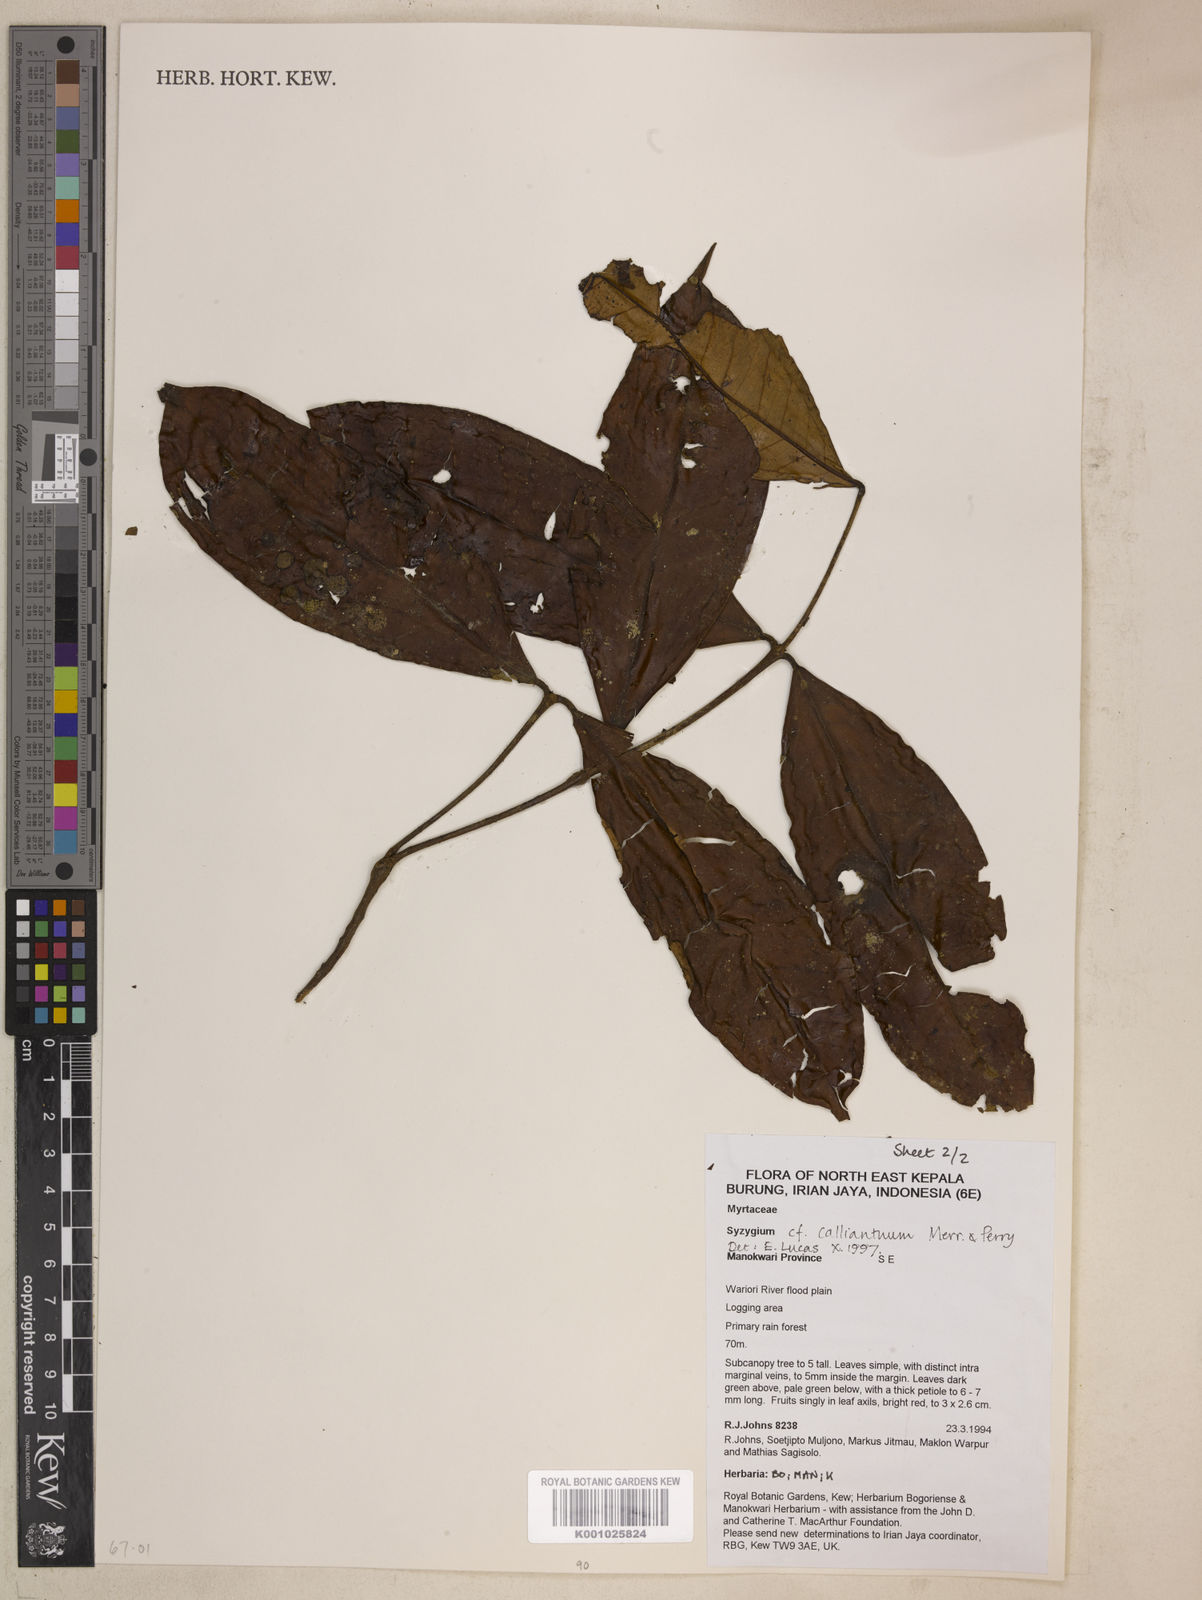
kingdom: Plantae
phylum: Tracheophyta
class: Magnoliopsida
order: Myrtales
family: Myrtaceae
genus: Syzygium
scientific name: Syzygium callianthum
